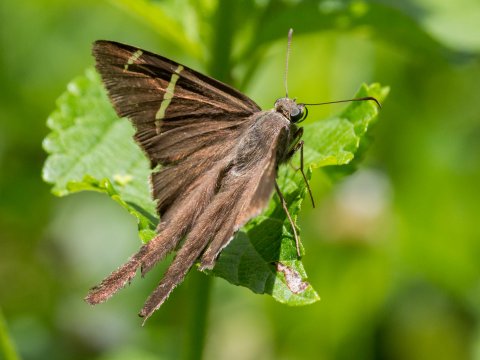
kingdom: Animalia
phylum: Arthropoda
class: Insecta
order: Lepidoptera
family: Hesperiidae
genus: Urbanus
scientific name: Urbanus
